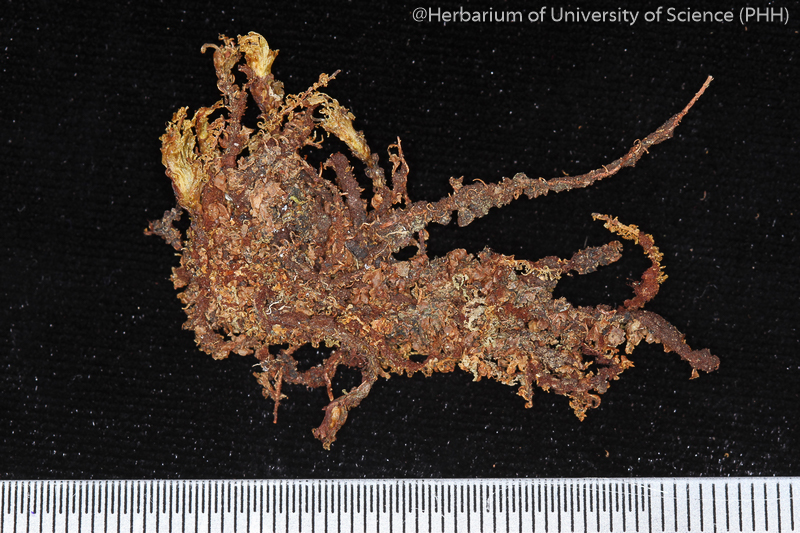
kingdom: Plantae
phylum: Bryophyta
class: Bryopsida
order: Bryales
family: Mniaceae
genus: Orthomnion
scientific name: Orthomnion dilatatum
